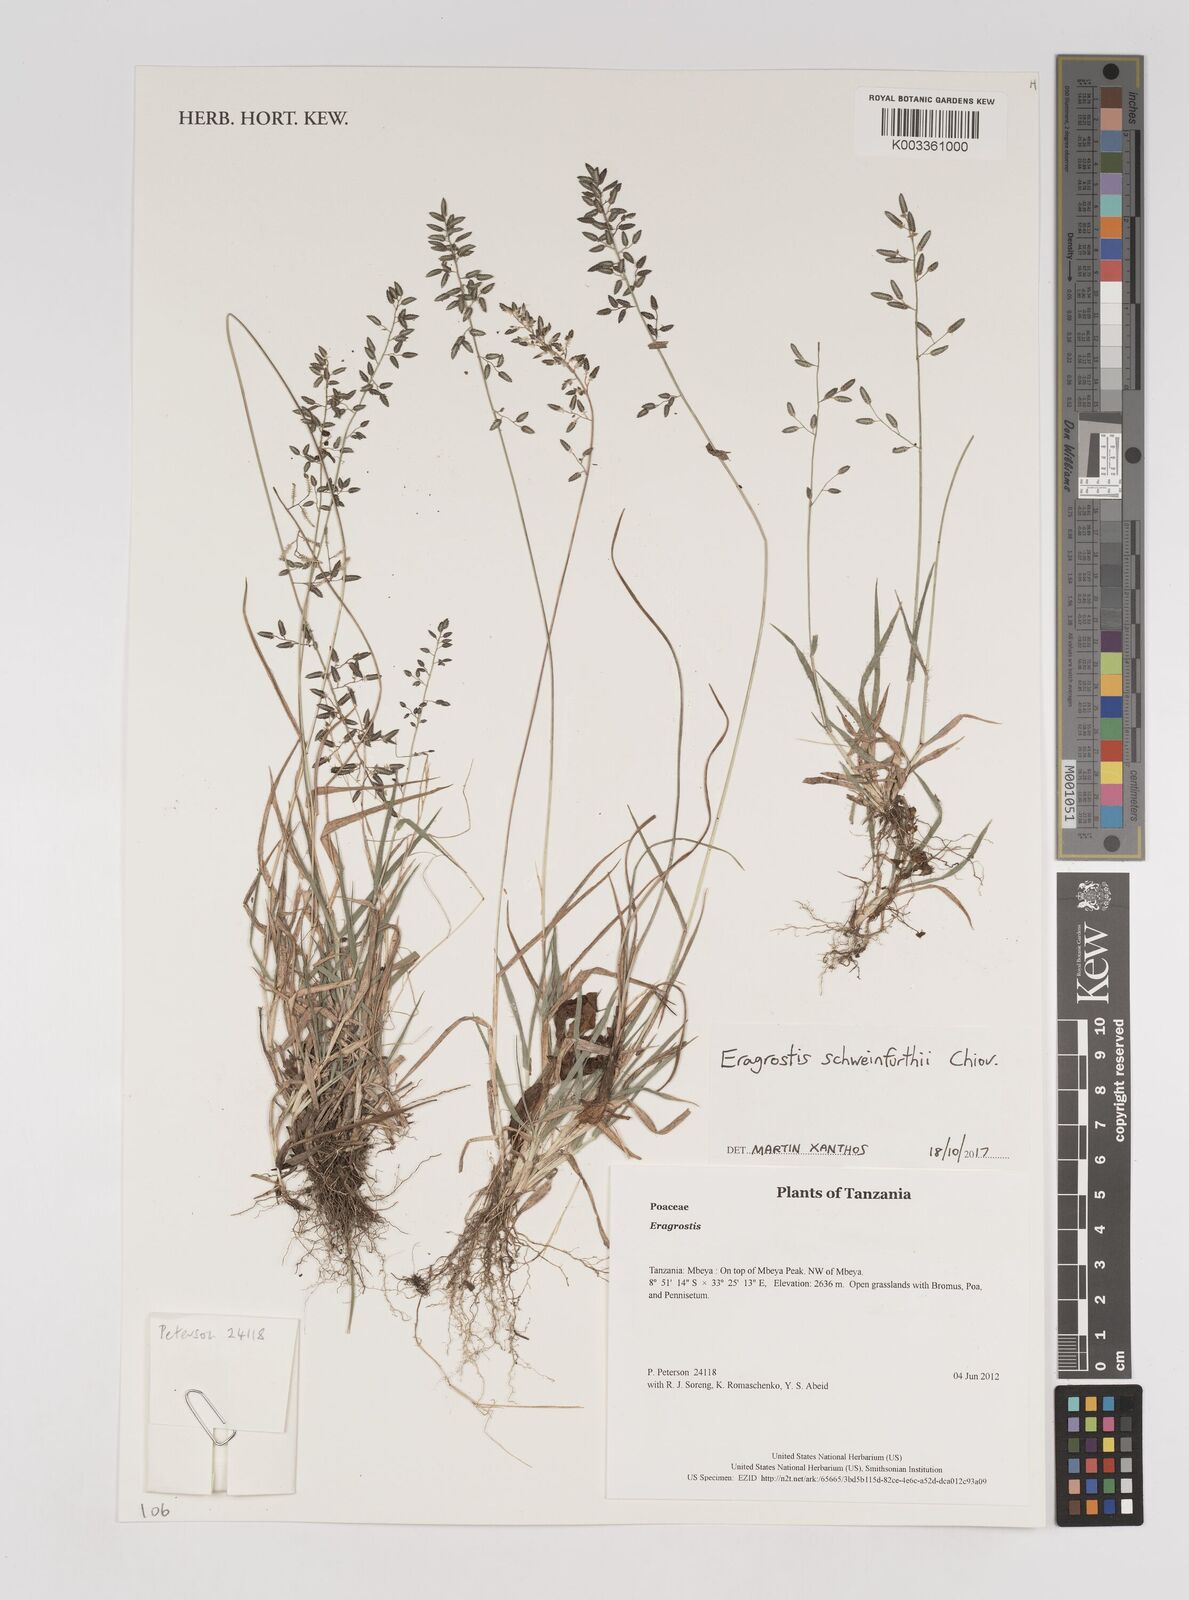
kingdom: Plantae
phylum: Tracheophyta
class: Liliopsida
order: Poales
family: Poaceae
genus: Eragrostis
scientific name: Eragrostis schweinfurthii
